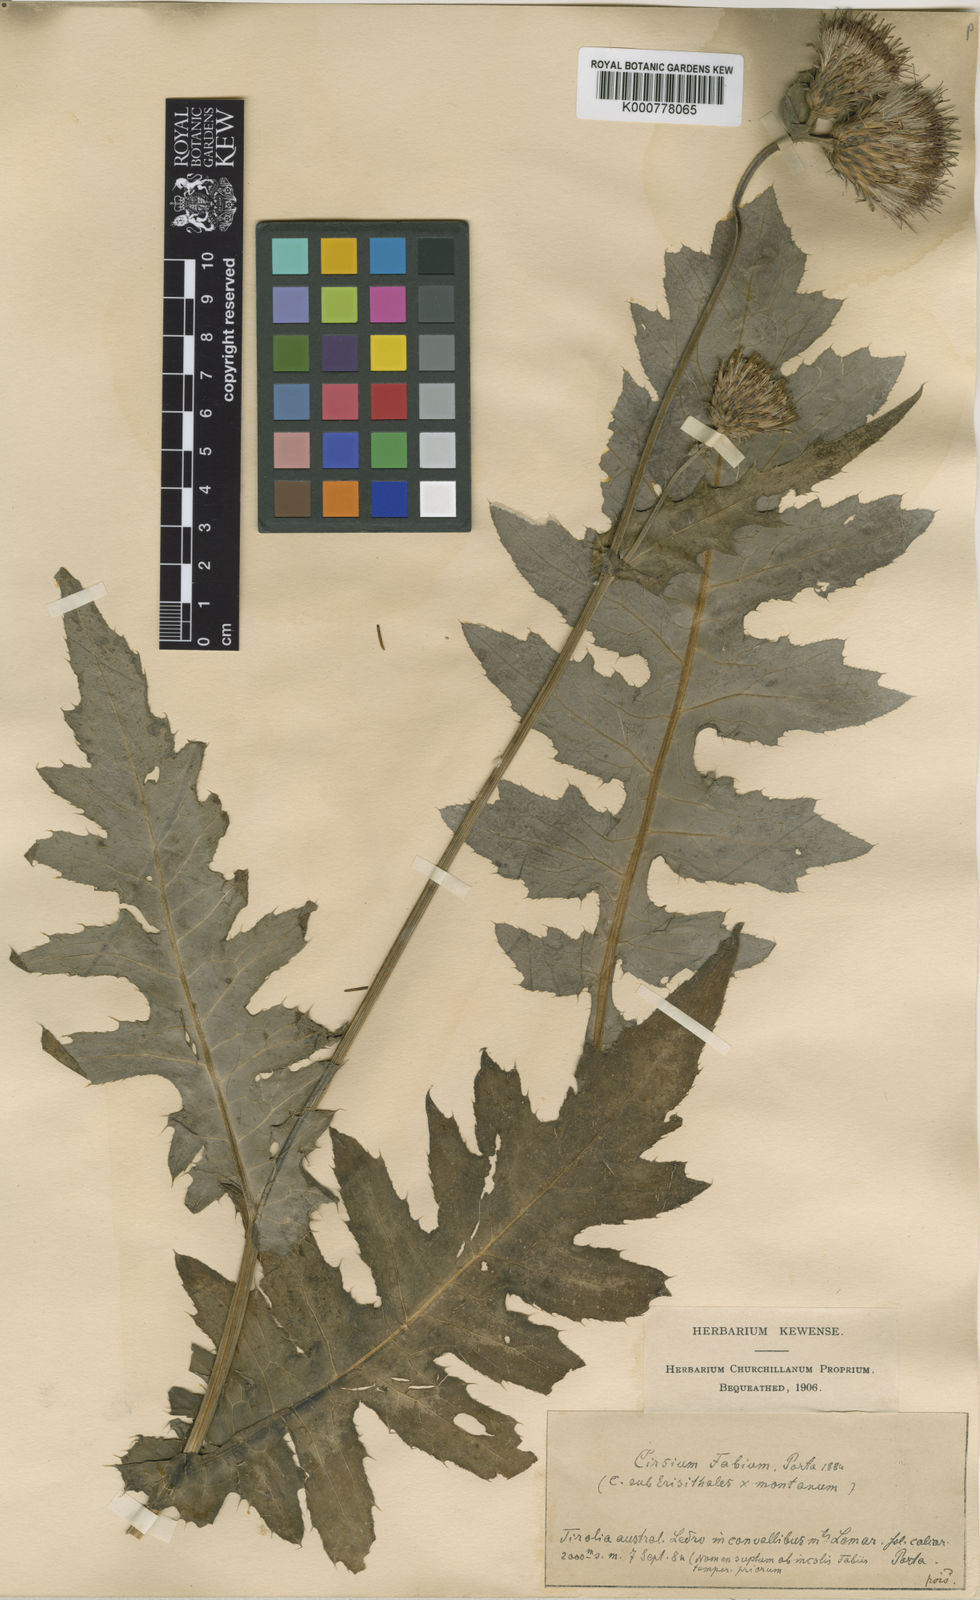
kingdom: Plantae
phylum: Tracheophyta
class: Magnoliopsida
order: Asterales
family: Asteraceae
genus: Cirsium
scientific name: Cirsium erisithales
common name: Yellow thistle
